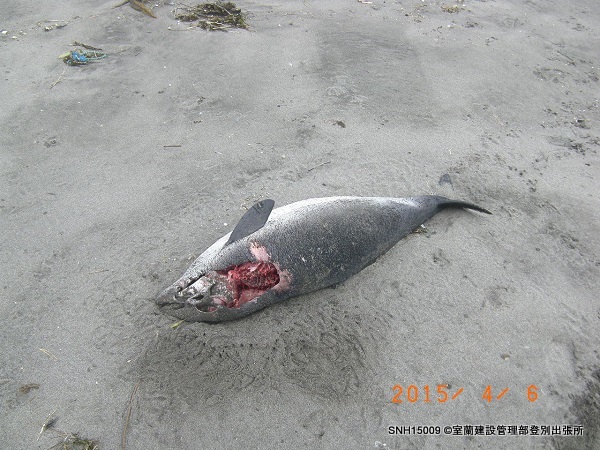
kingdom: Animalia
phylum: Chordata
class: Mammalia
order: Cetacea
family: Phocoenidae
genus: Phocoena
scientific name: Phocoena phocoena
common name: Harbour porpoise
